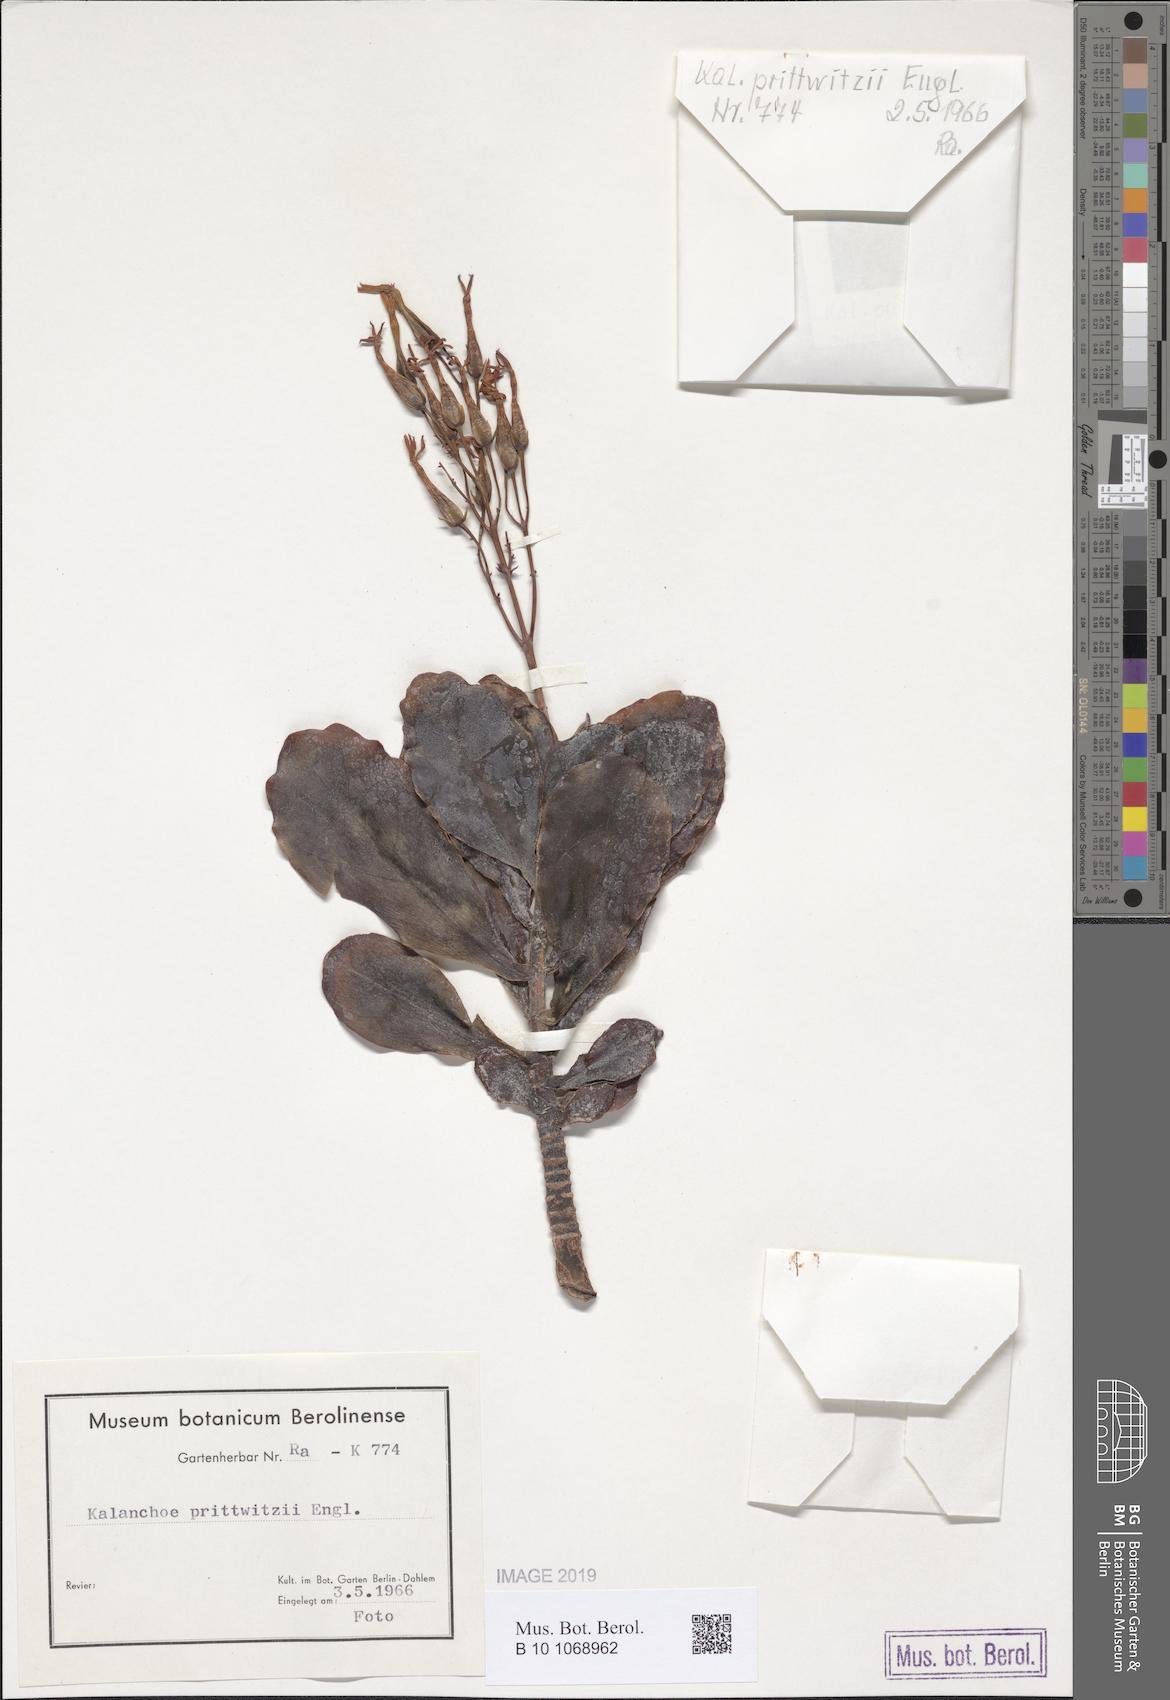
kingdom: Plantae
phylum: Tracheophyta
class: Magnoliopsida
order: Saxifragales
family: Crassulaceae
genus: Kalanchoe
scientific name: Kalanchoe prittwitzii
